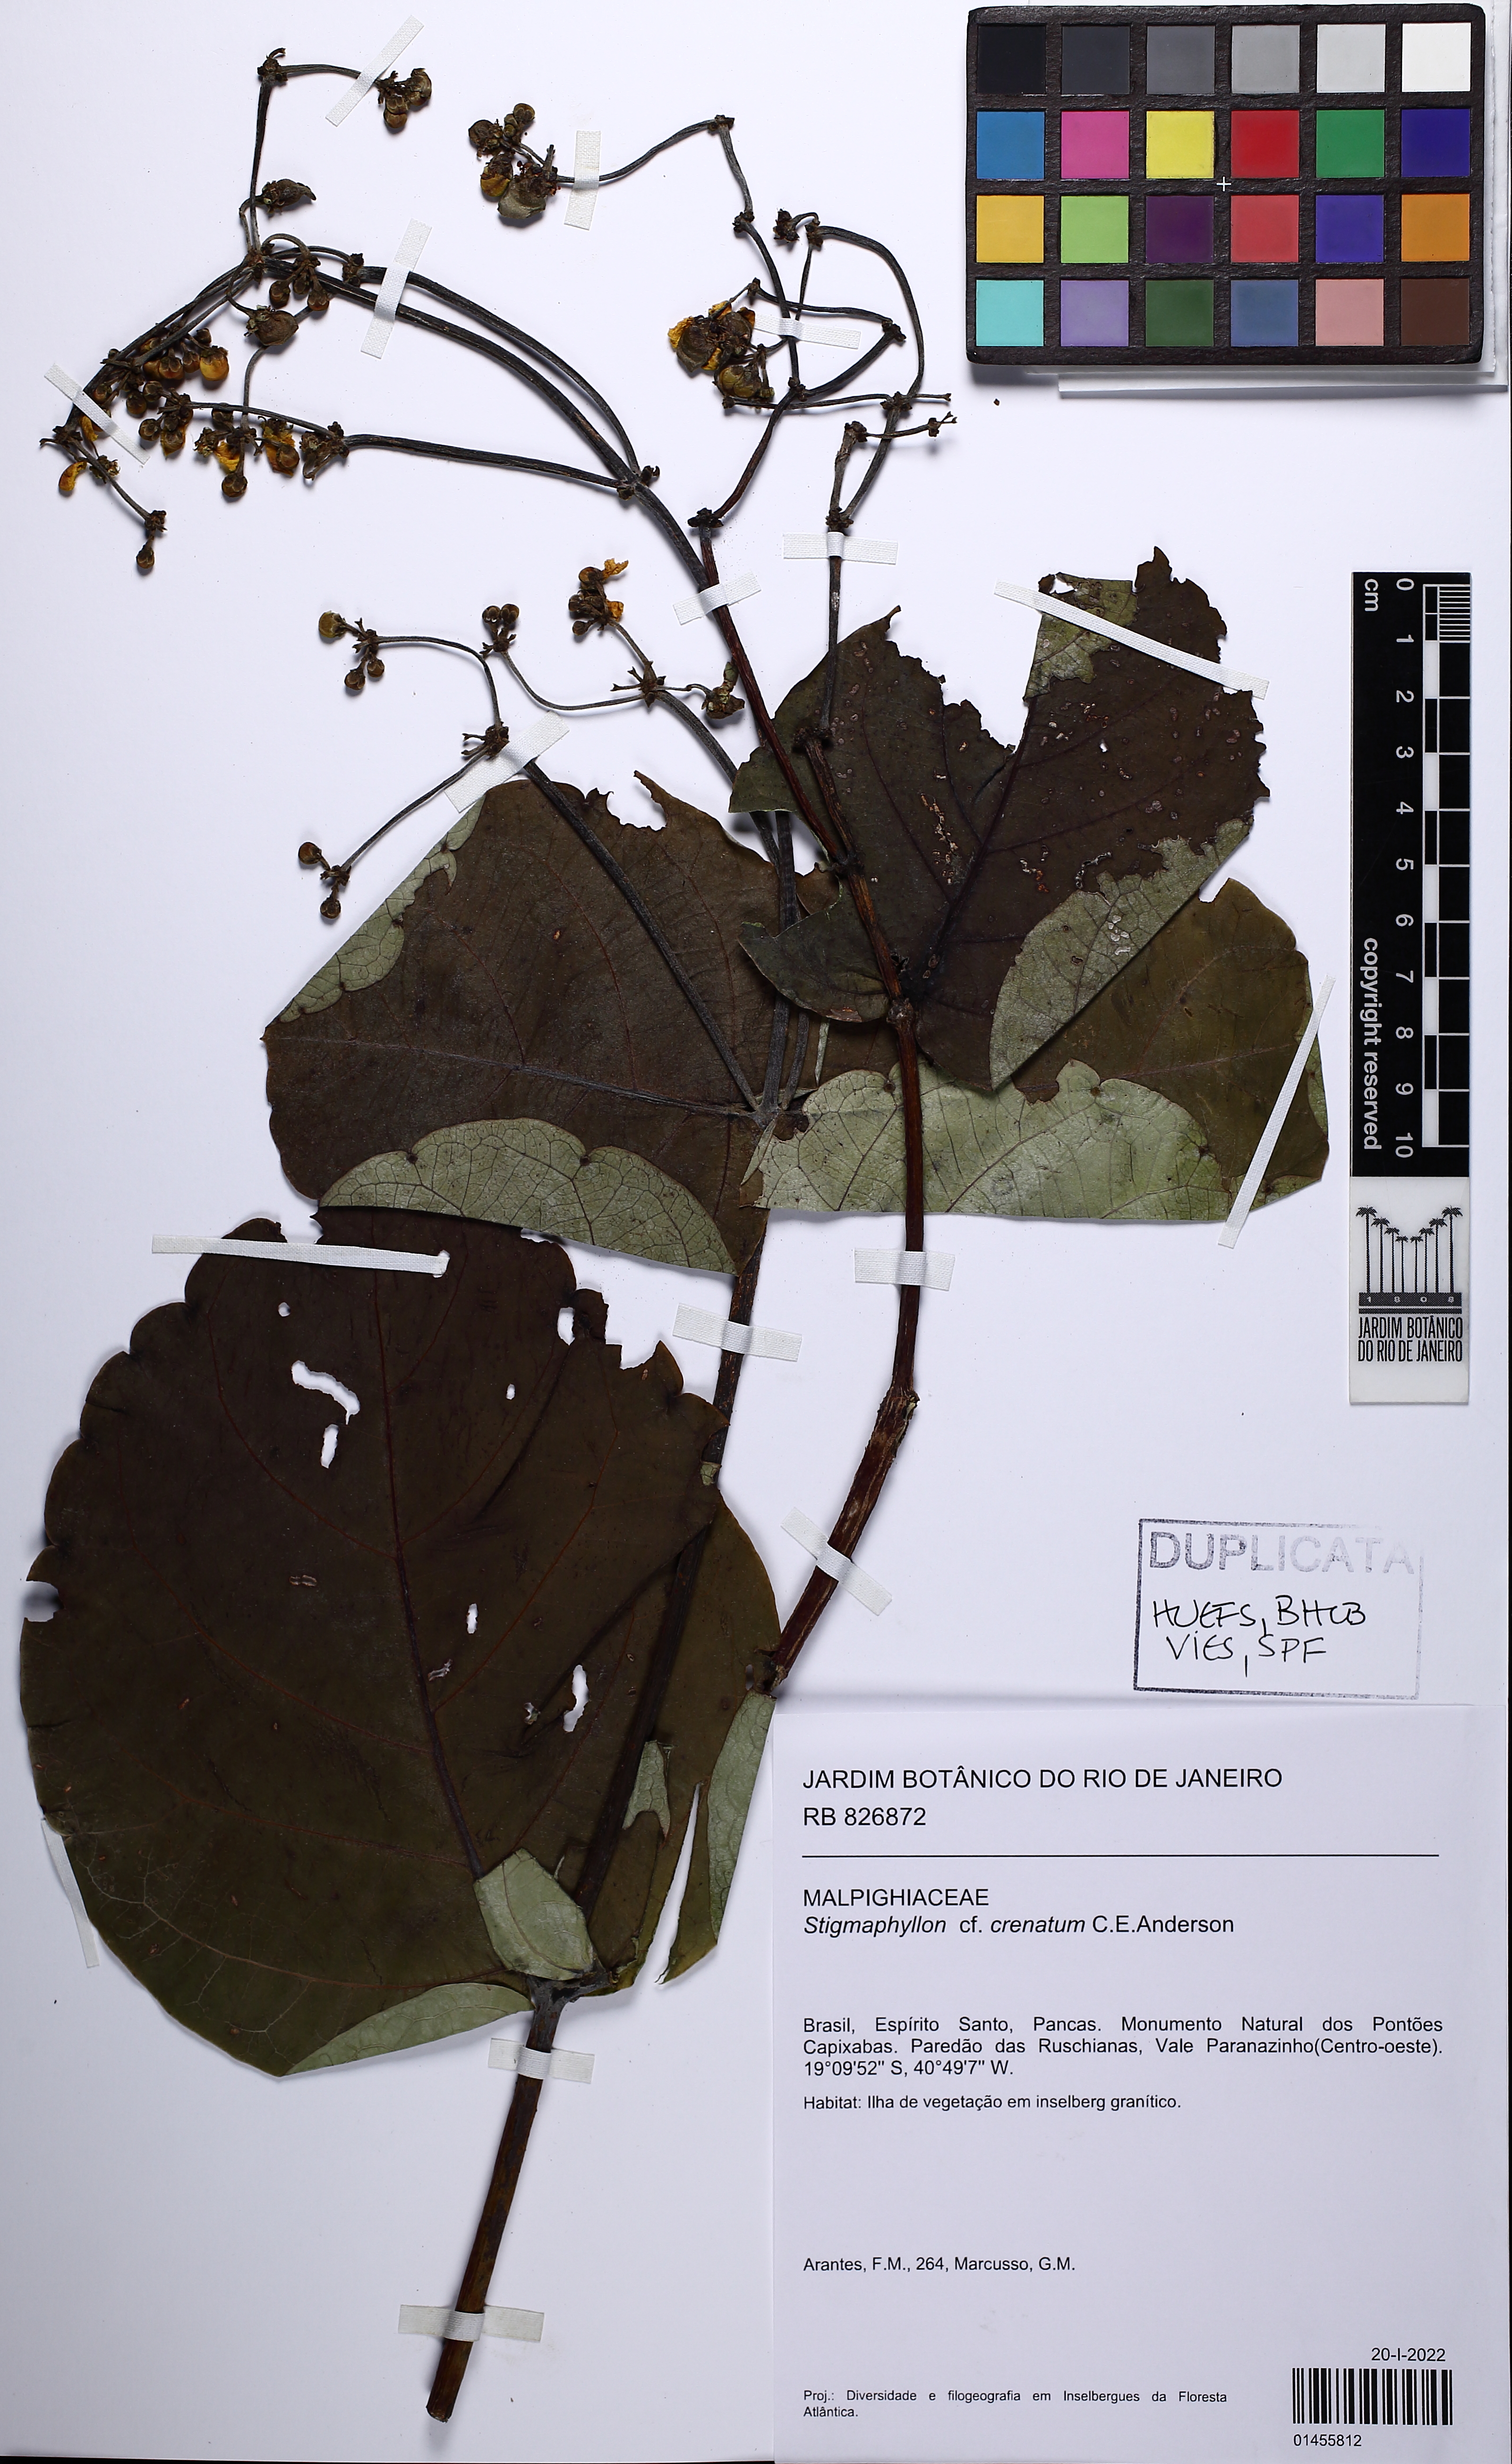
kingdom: Plantae
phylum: Tracheophyta
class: Magnoliopsida
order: Malpighiales
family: Malpighiaceae
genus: Stigmaphyllon
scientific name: Stigmaphyllon crenatum
